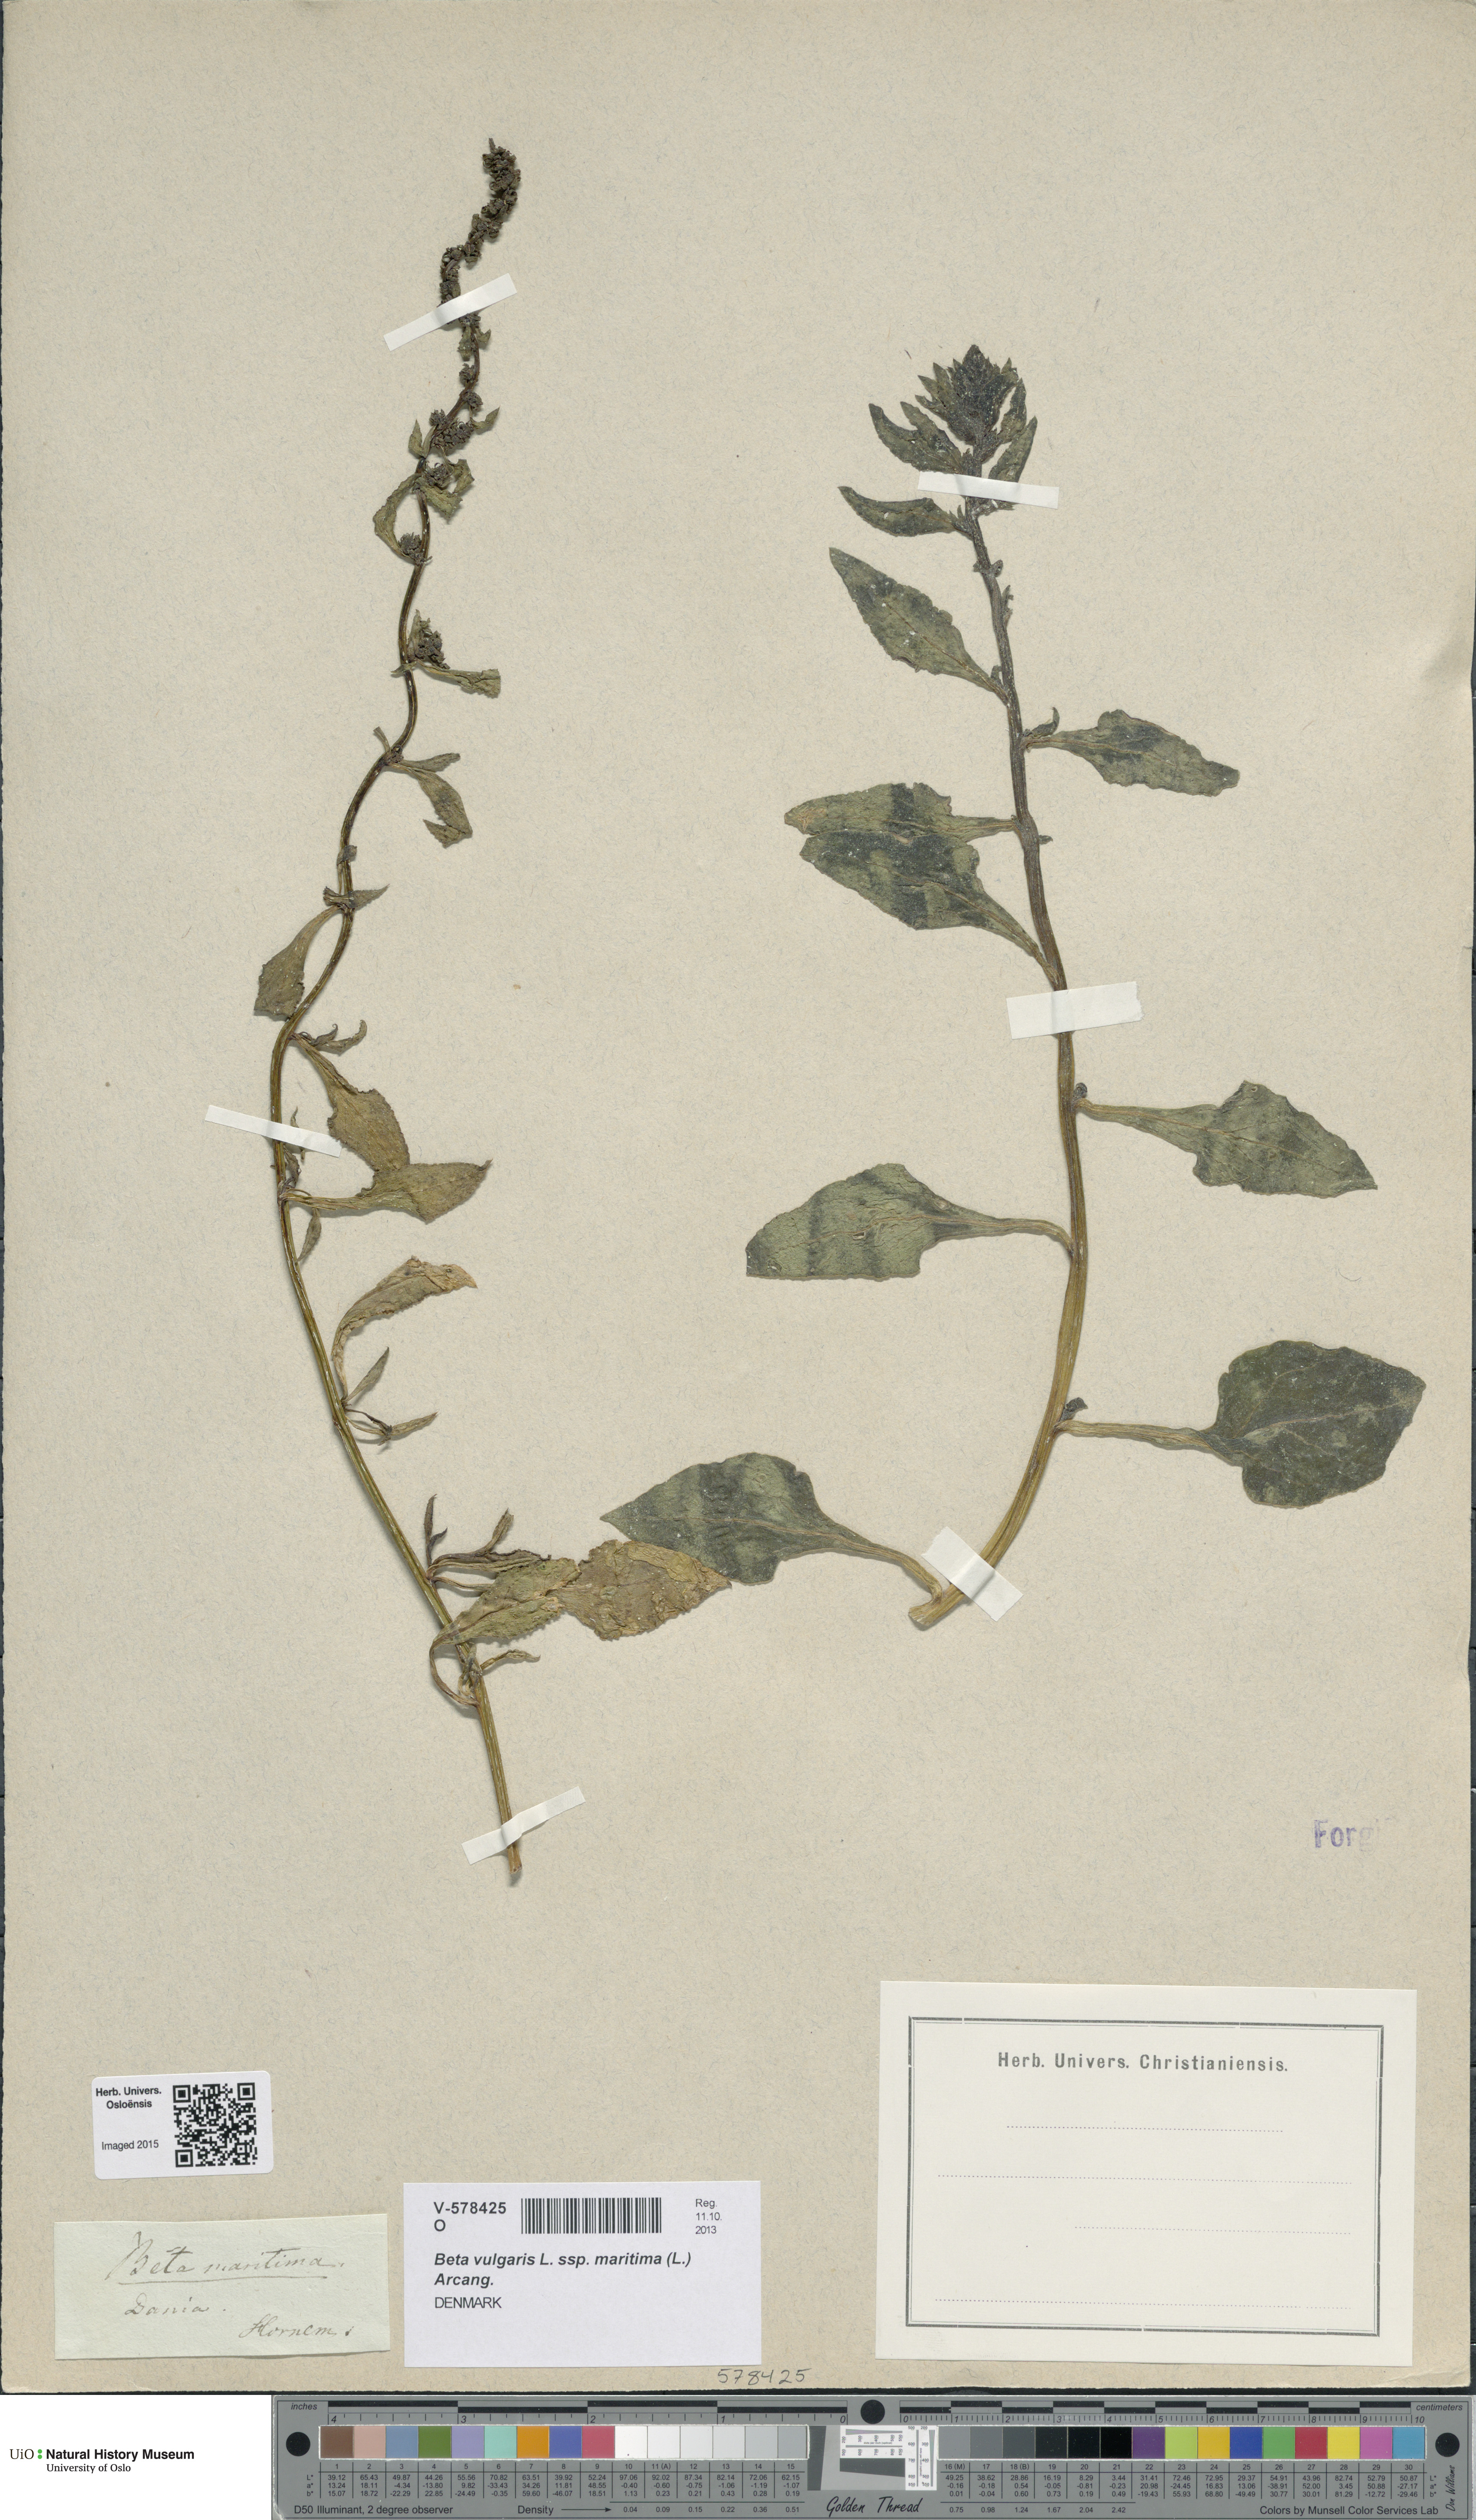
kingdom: Plantae
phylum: Tracheophyta
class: Magnoliopsida
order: Caryophyllales
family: Amaranthaceae
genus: Beta
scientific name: Beta maritima
